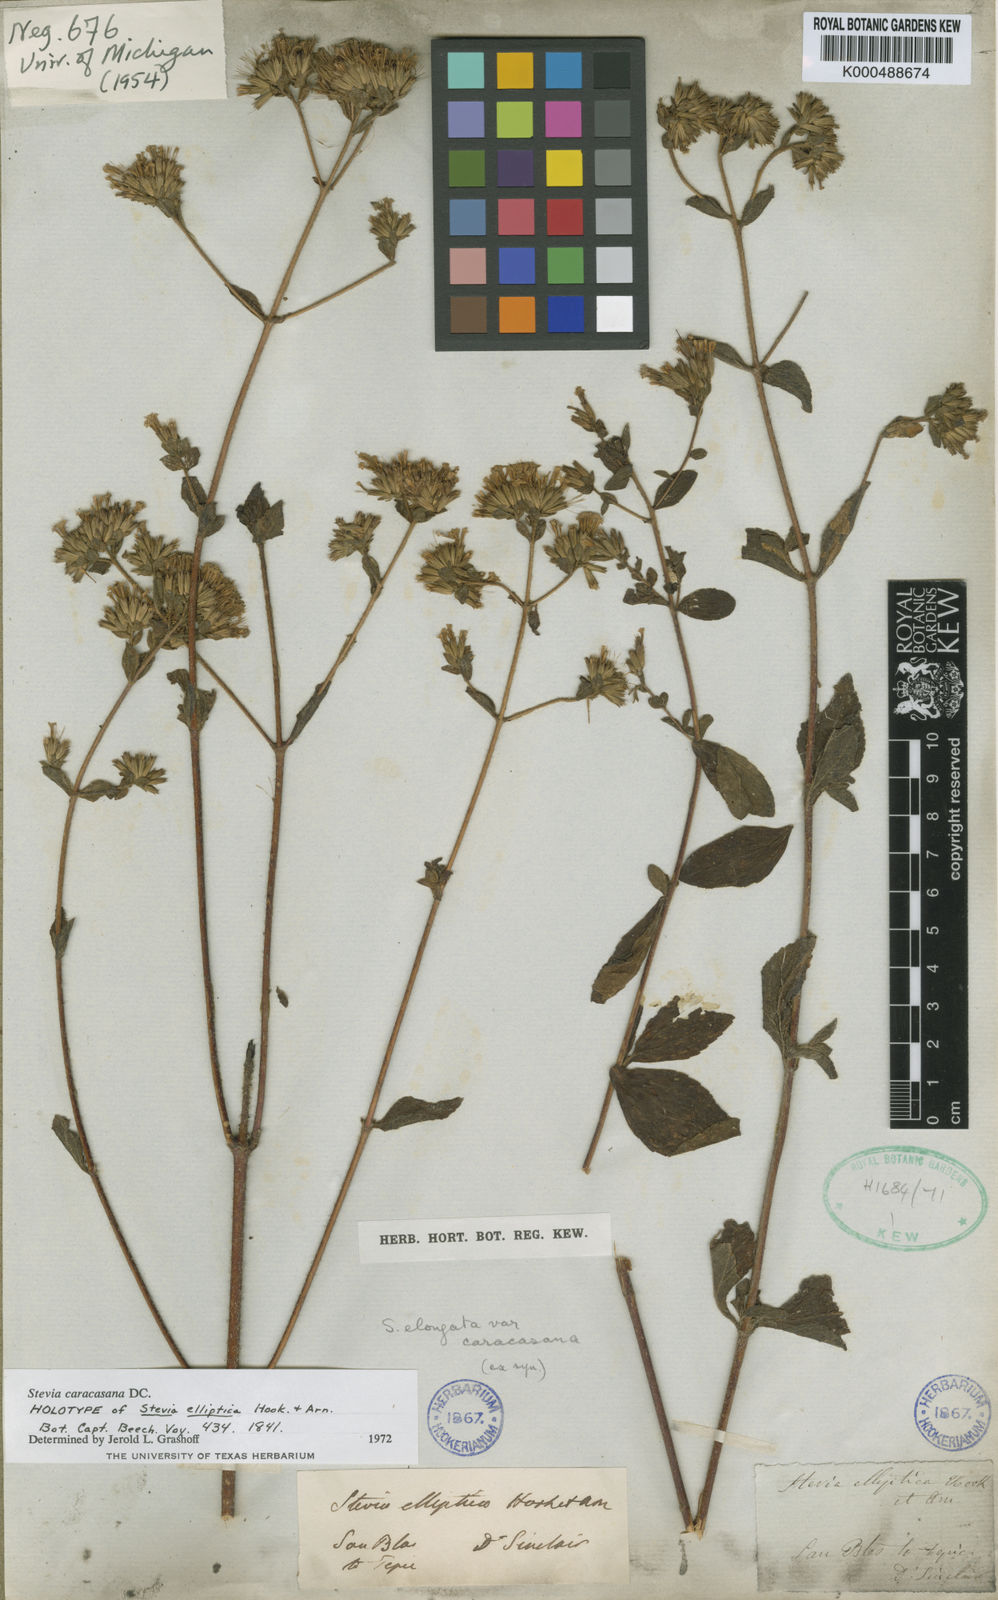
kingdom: Plantae
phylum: Tracheophyta
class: Magnoliopsida
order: Asterales
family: Asteraceae
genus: Stevia
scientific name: Stevia caracasana
